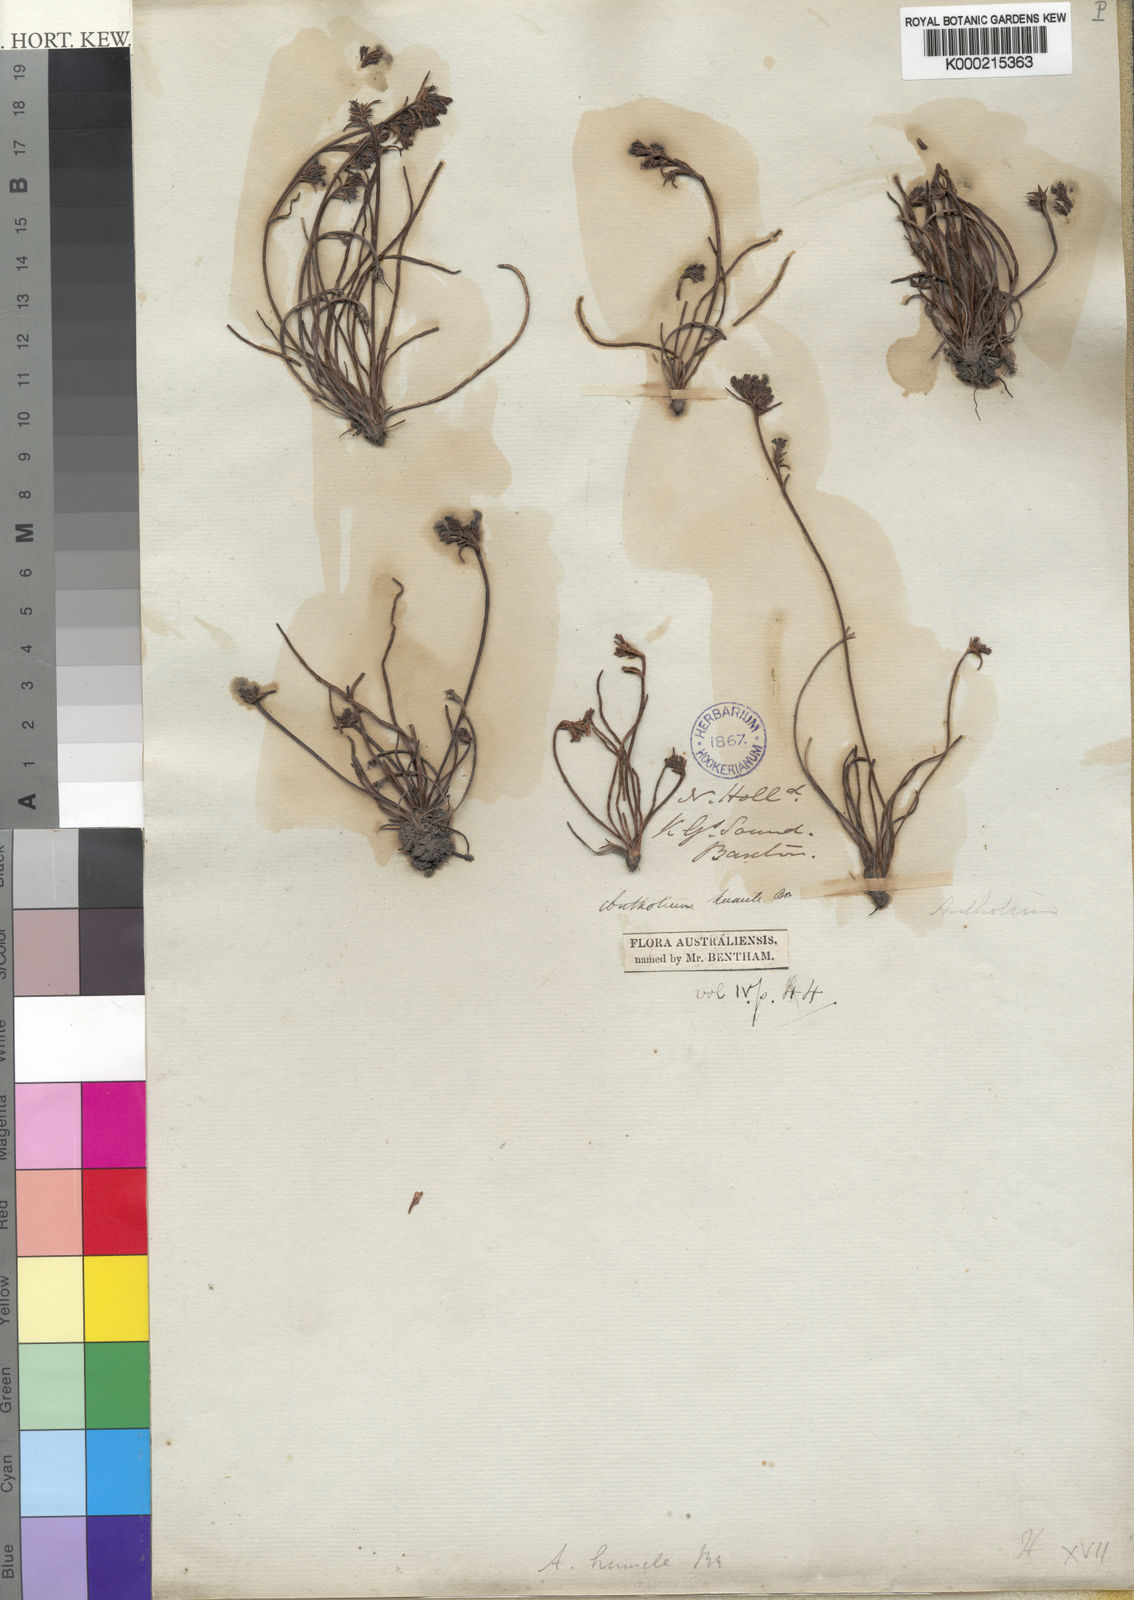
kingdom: Plantae
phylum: Tracheophyta
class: Magnoliopsida
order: Asterales
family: Goodeniaceae
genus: Anthotium
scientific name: Anthotium humile
